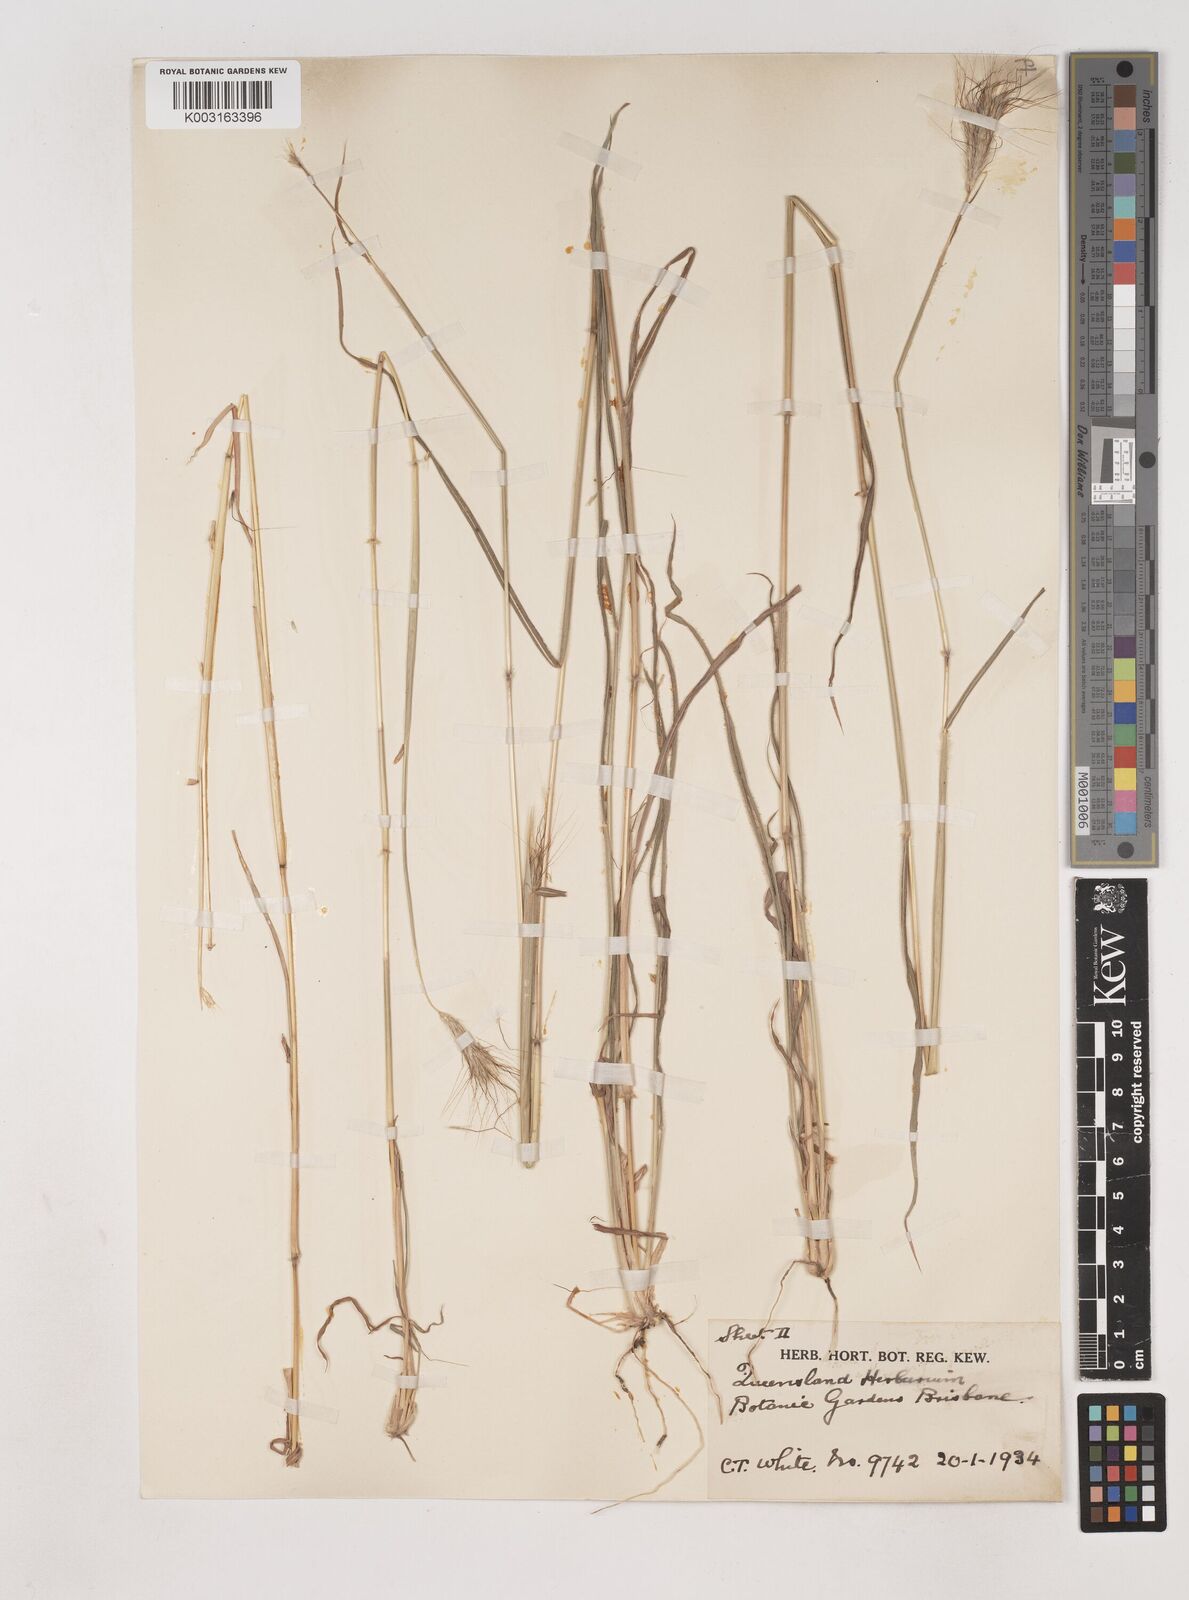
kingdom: Plantae
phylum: Tracheophyta
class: Liliopsida
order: Poales
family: Poaceae
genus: Dichanthium
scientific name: Dichanthium sericeum
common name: Silky bluestem
